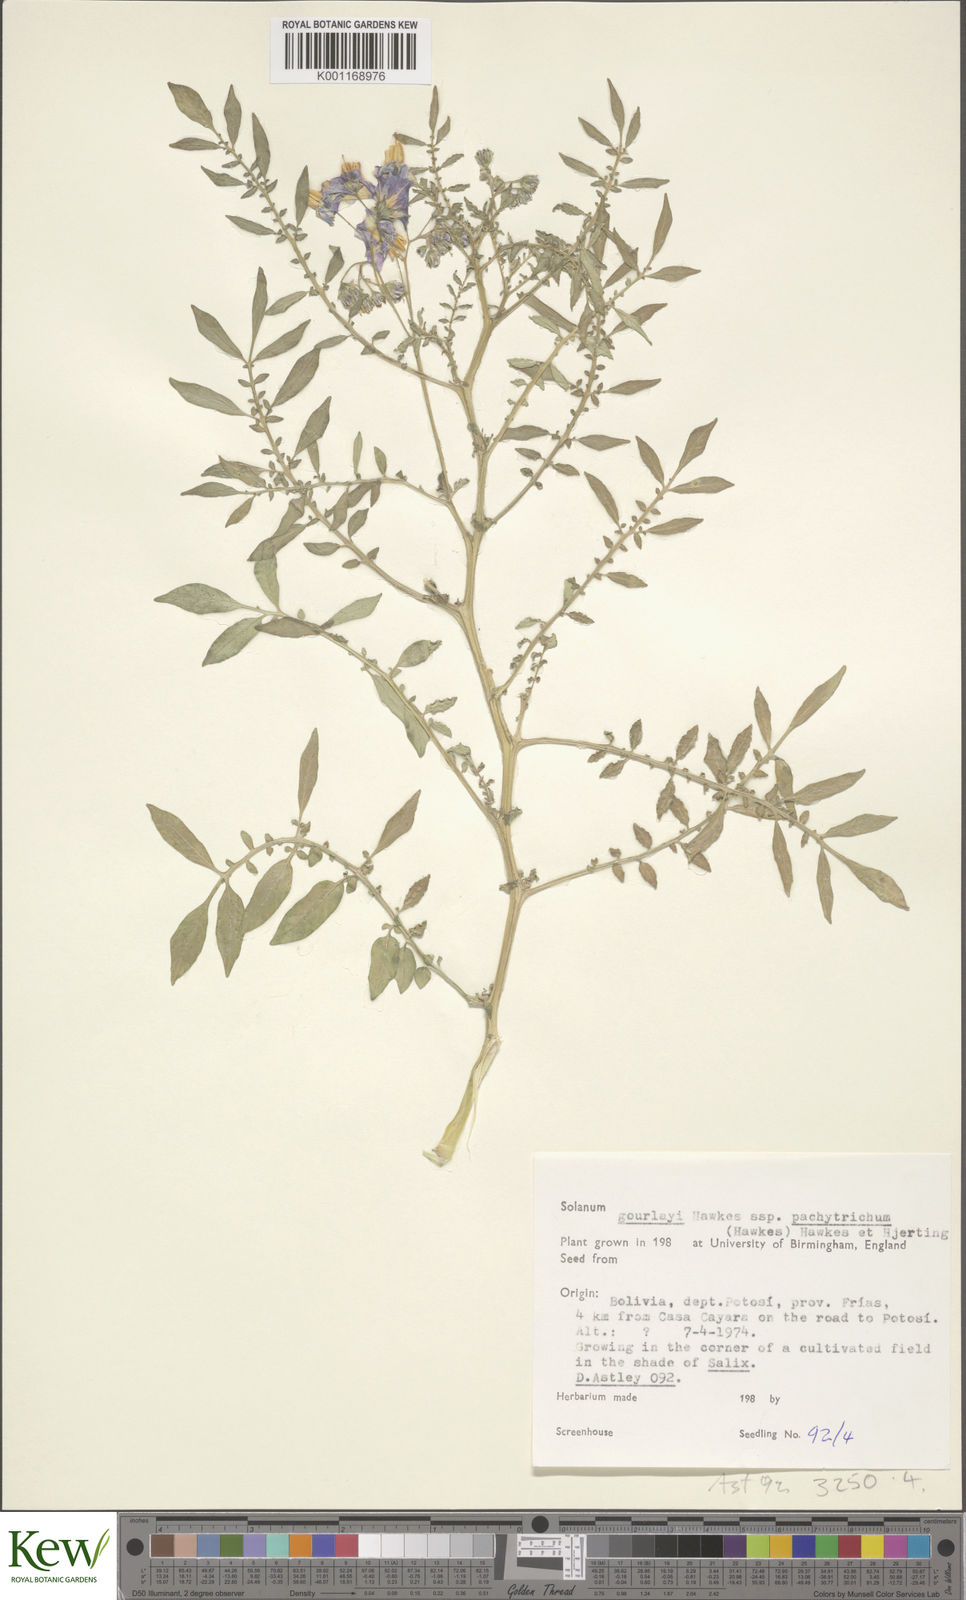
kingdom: Plantae
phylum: Tracheophyta
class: Magnoliopsida
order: Solanales
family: Solanaceae
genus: Solanum
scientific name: Solanum brevicaule
